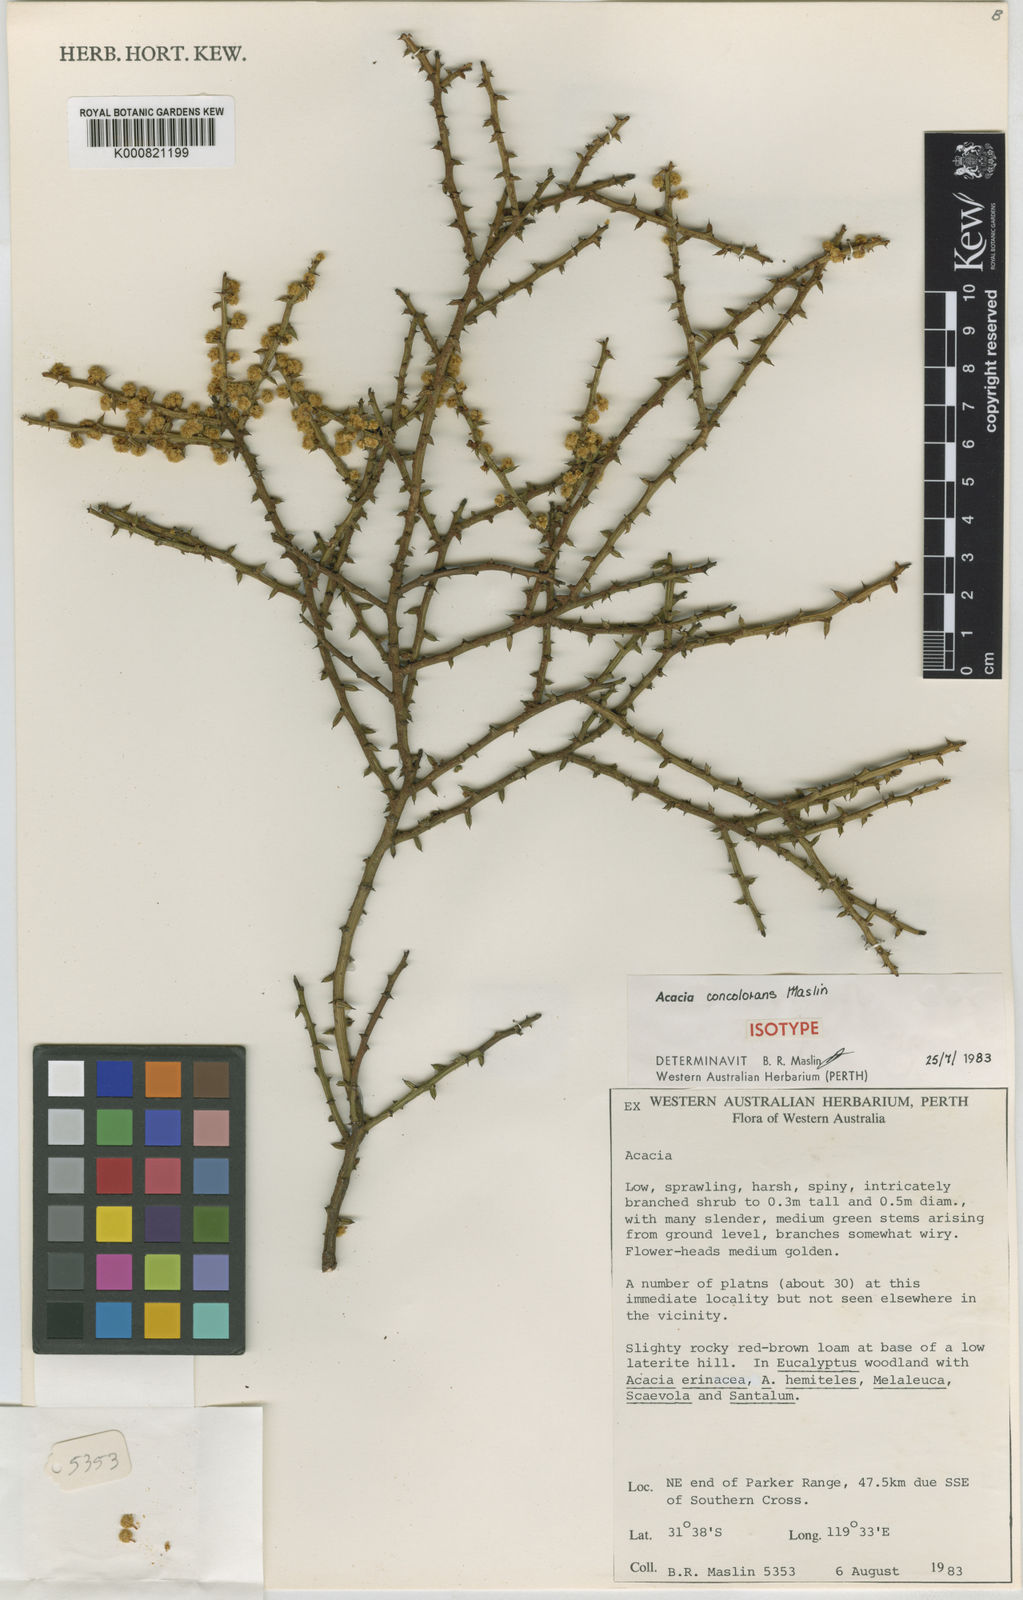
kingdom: Plantae
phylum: Tracheophyta
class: Magnoliopsida
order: Fabales
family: Fabaceae
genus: Acacia
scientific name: Acacia concolorans
